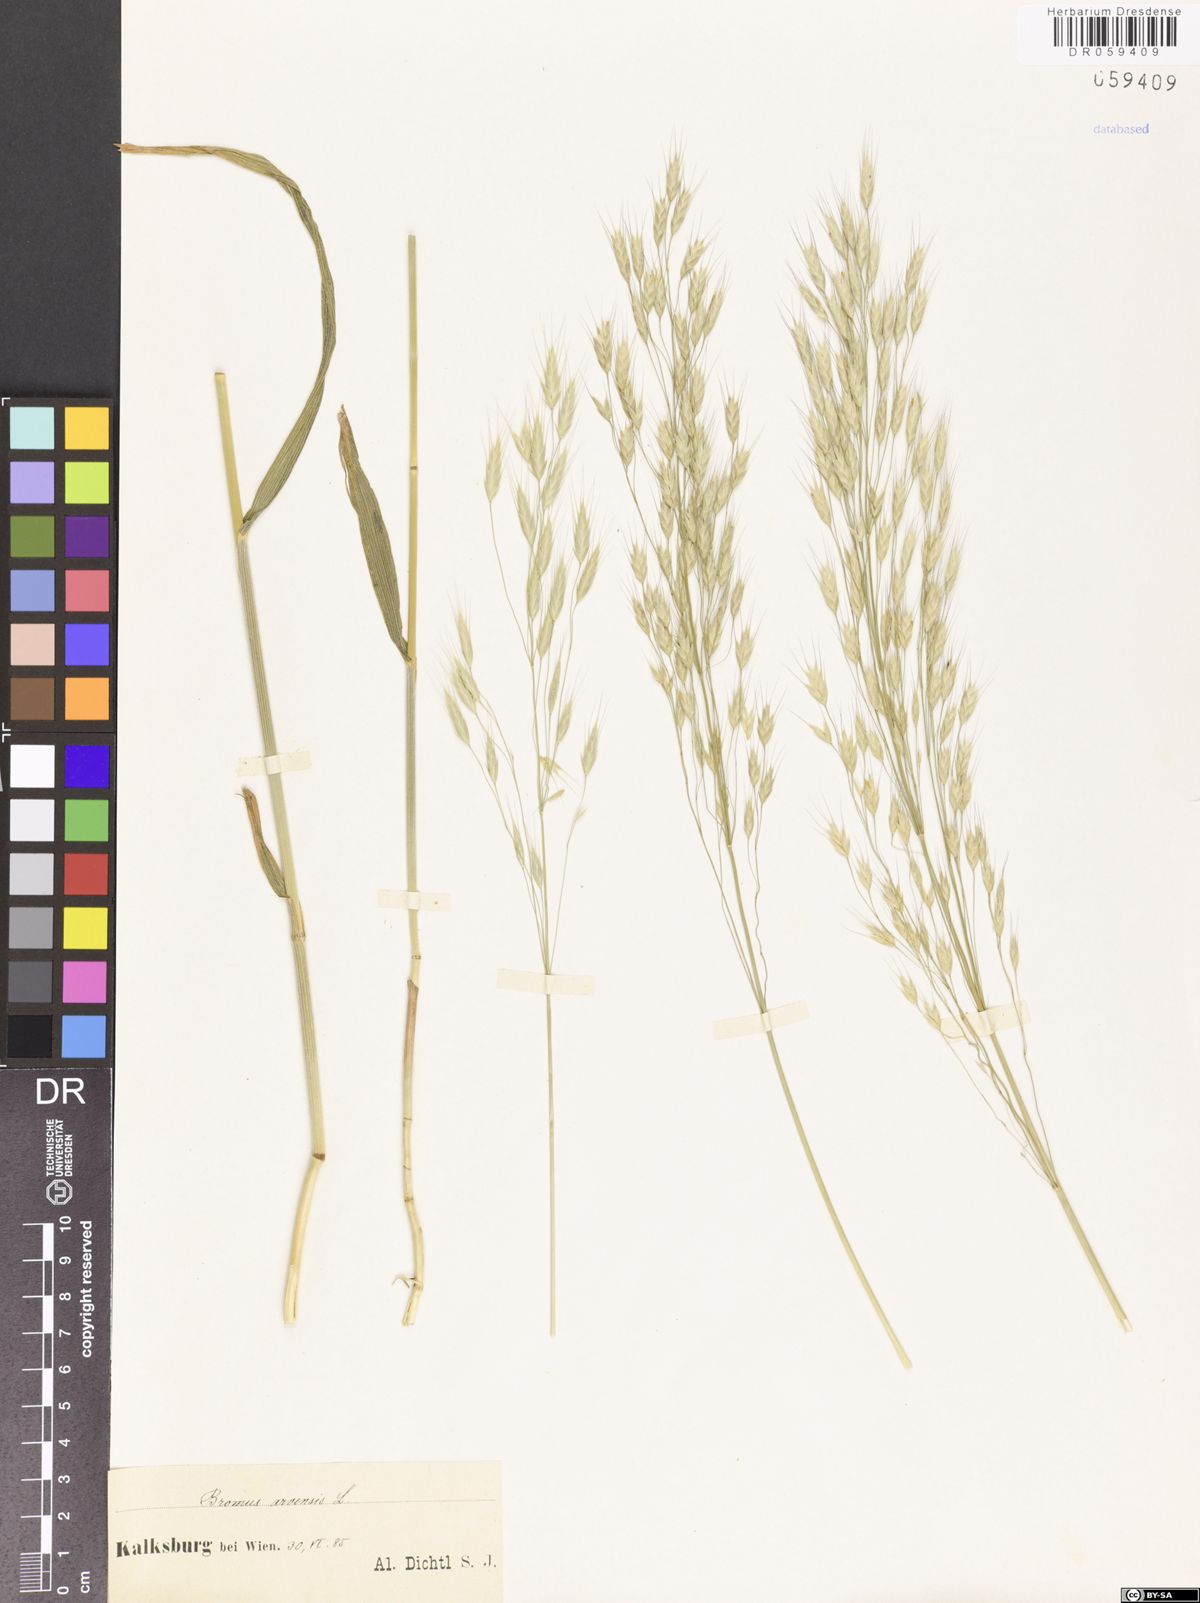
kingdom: Plantae
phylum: Tracheophyta
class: Liliopsida
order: Poales
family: Poaceae
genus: Bromus
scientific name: Bromus arvensis
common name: Field brome
